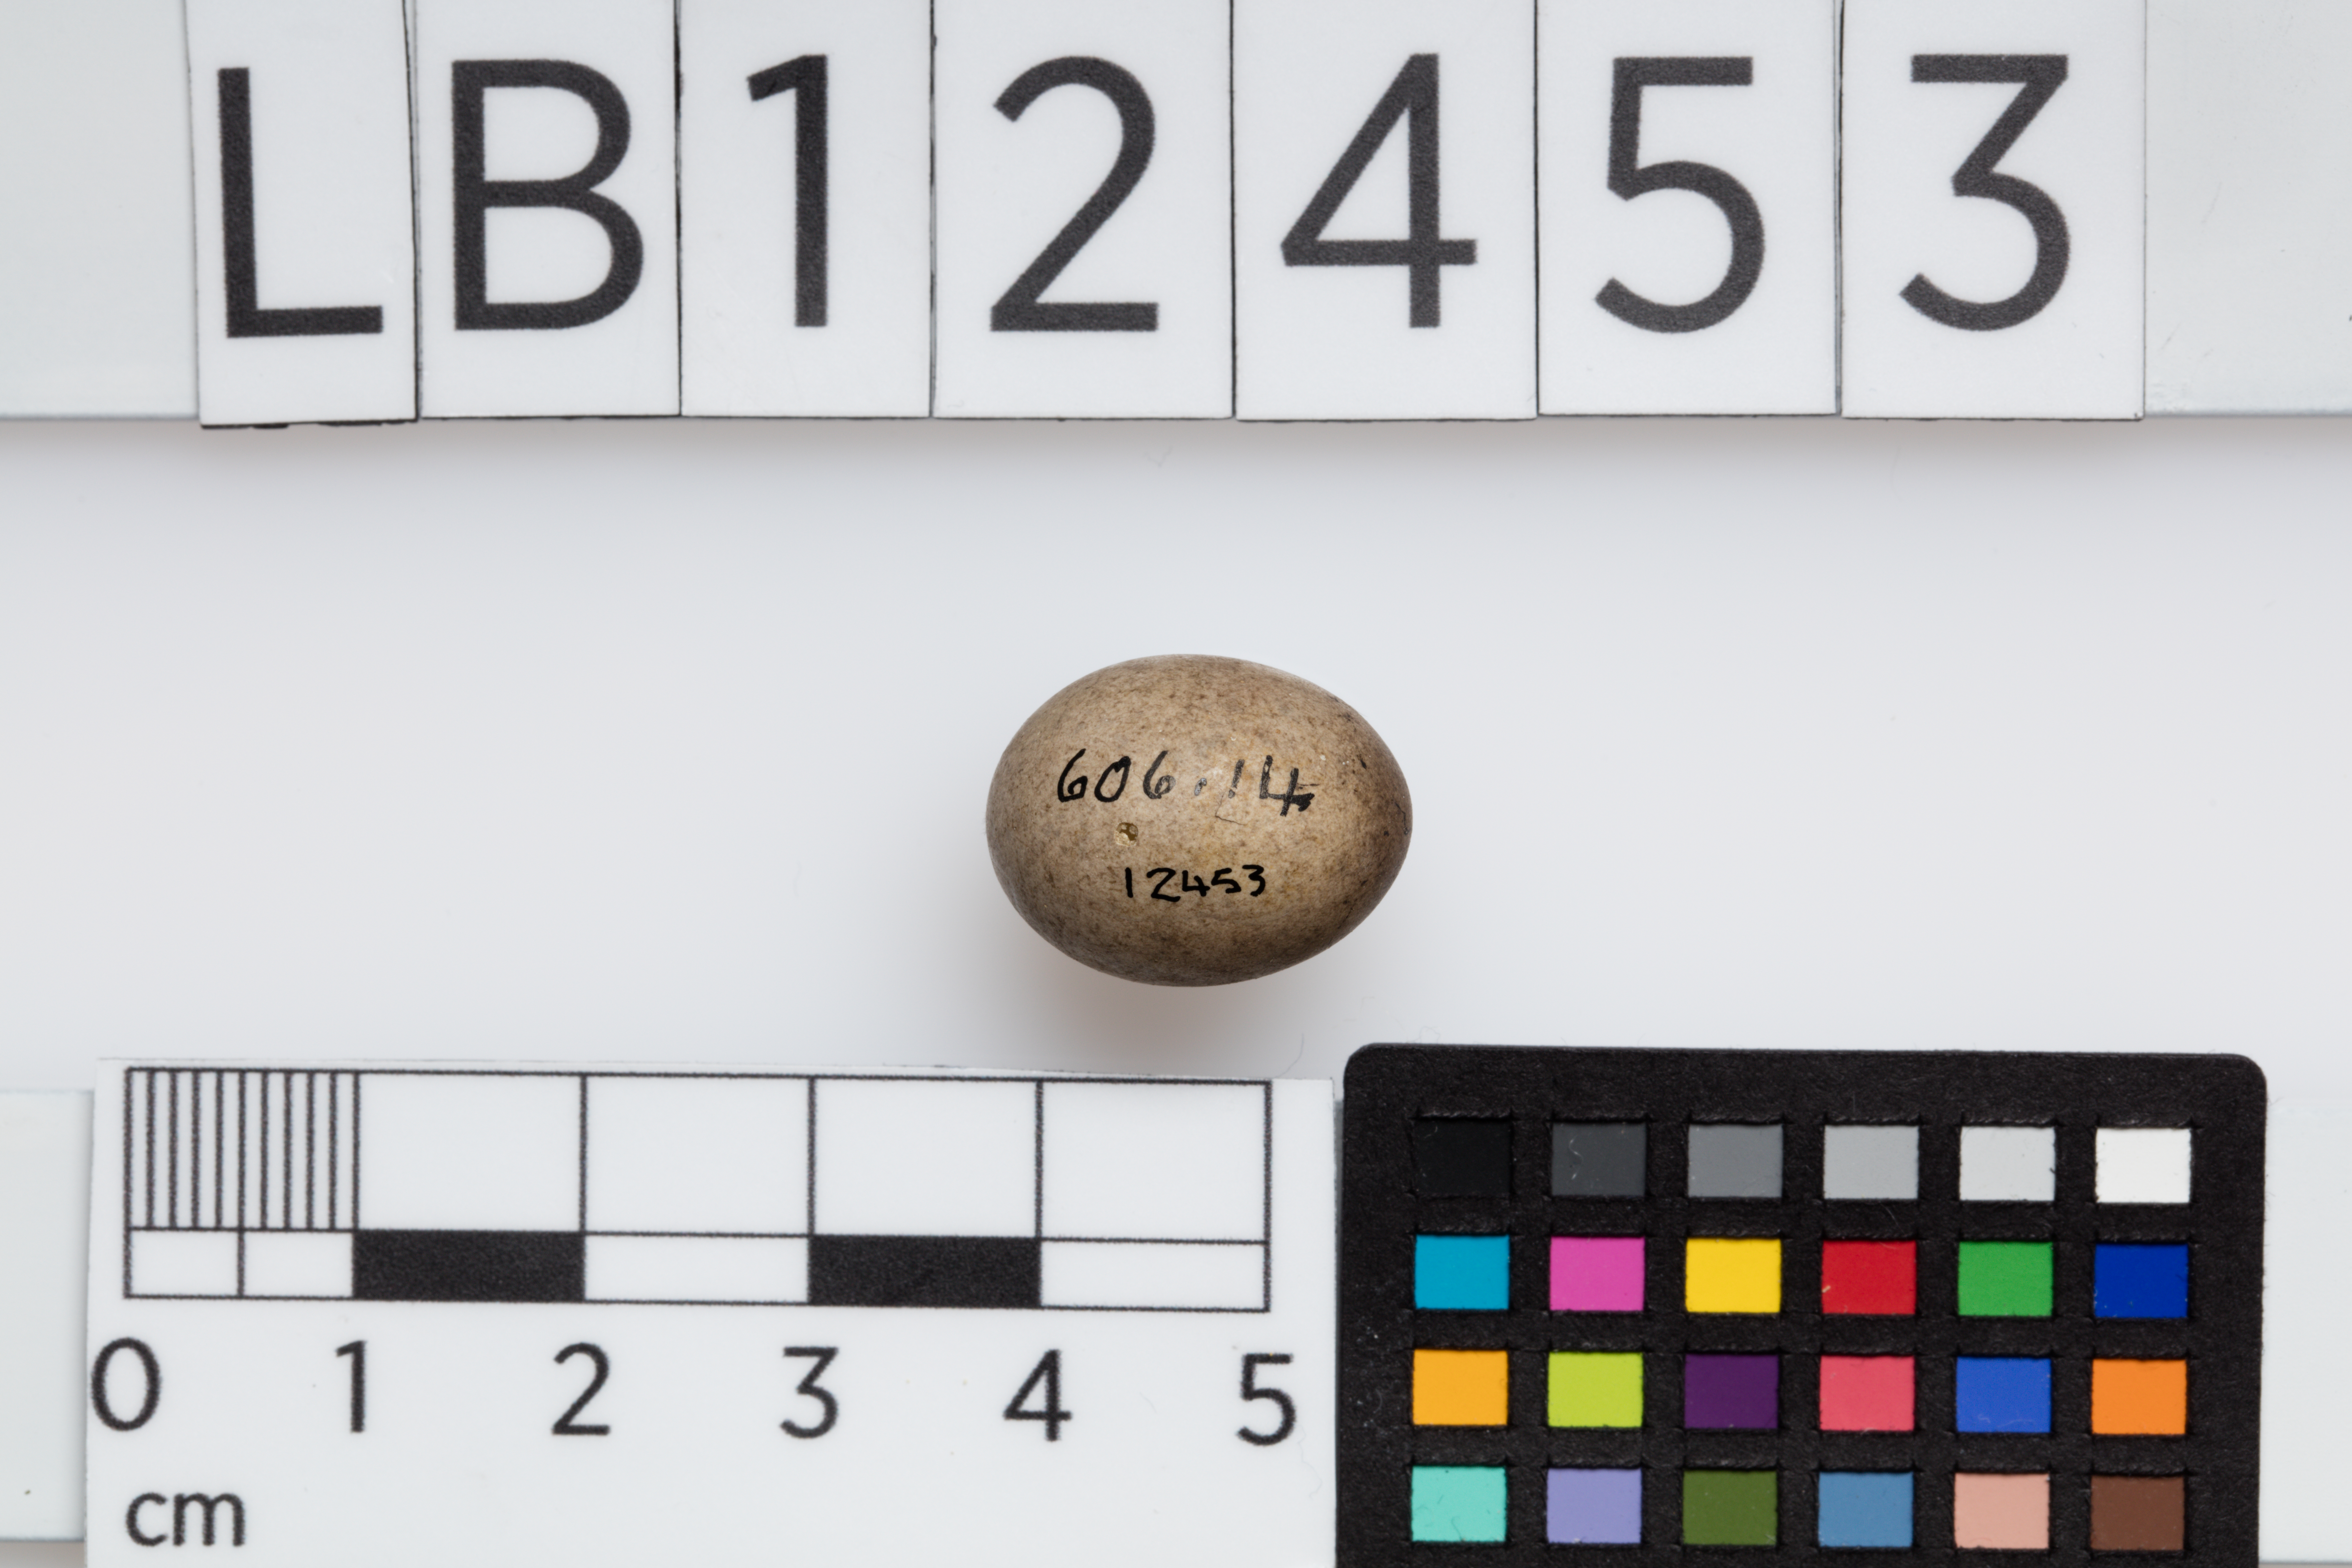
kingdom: Animalia
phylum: Chordata
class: Aves
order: Passeriformes
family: Motacillidae
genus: Anthus
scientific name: Anthus pratensis
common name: Meadow pipit
